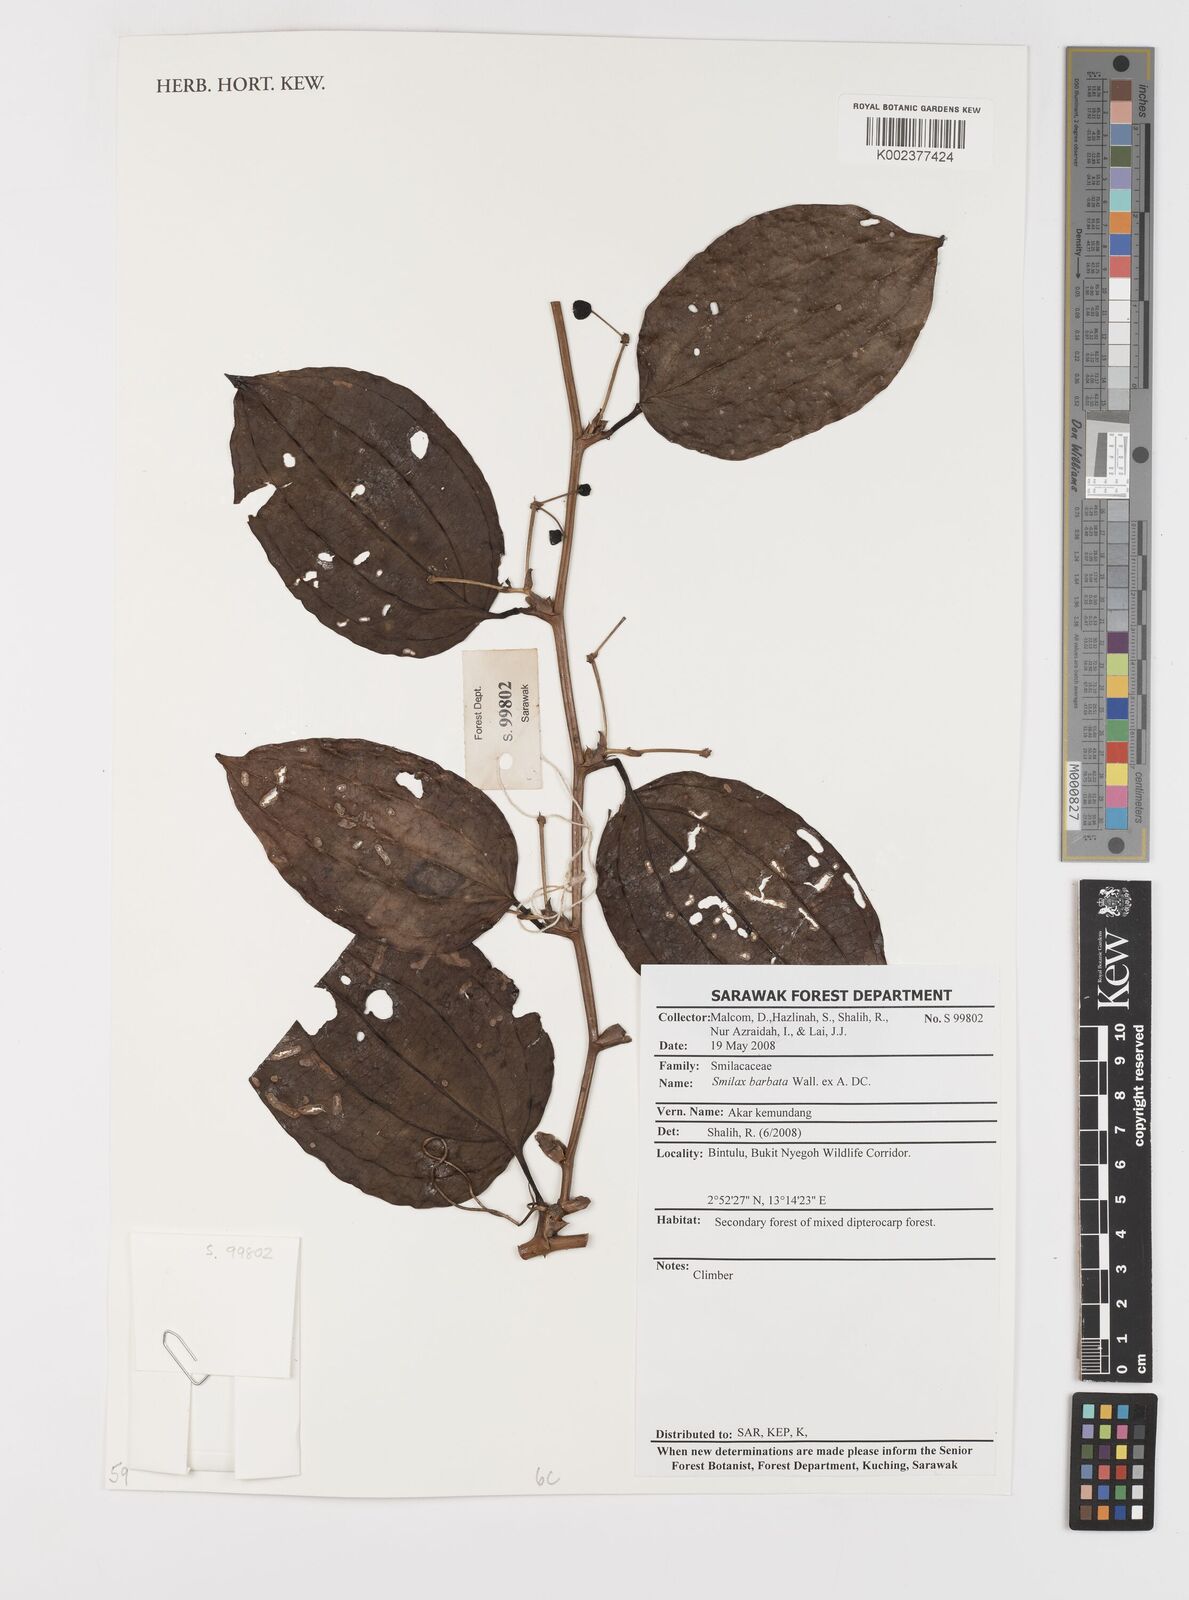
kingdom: Plantae
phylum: Tracheophyta
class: Liliopsida
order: Liliales
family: Smilacaceae
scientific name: Smilacaceae
